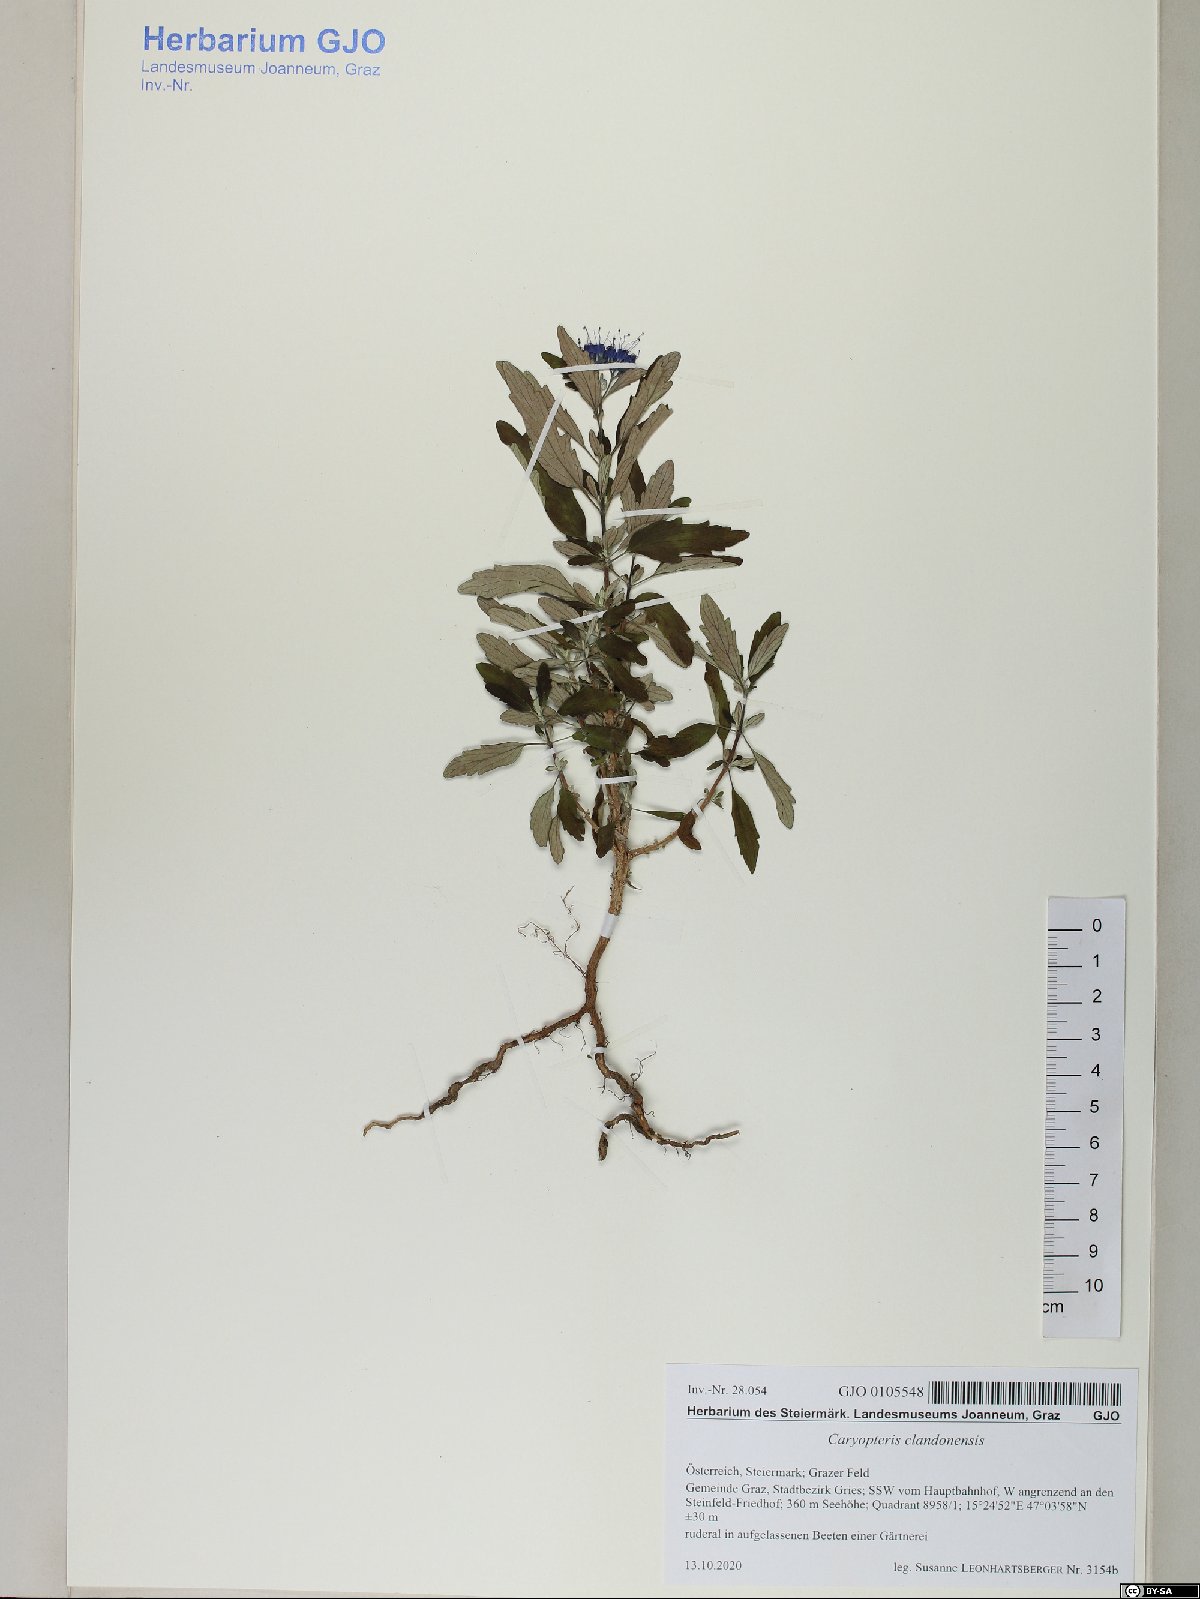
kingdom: Plantae
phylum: Tracheophyta
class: Magnoliopsida
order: Lamiales
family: Lamiaceae
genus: Caryopteris
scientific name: Caryopteris clandonensis
